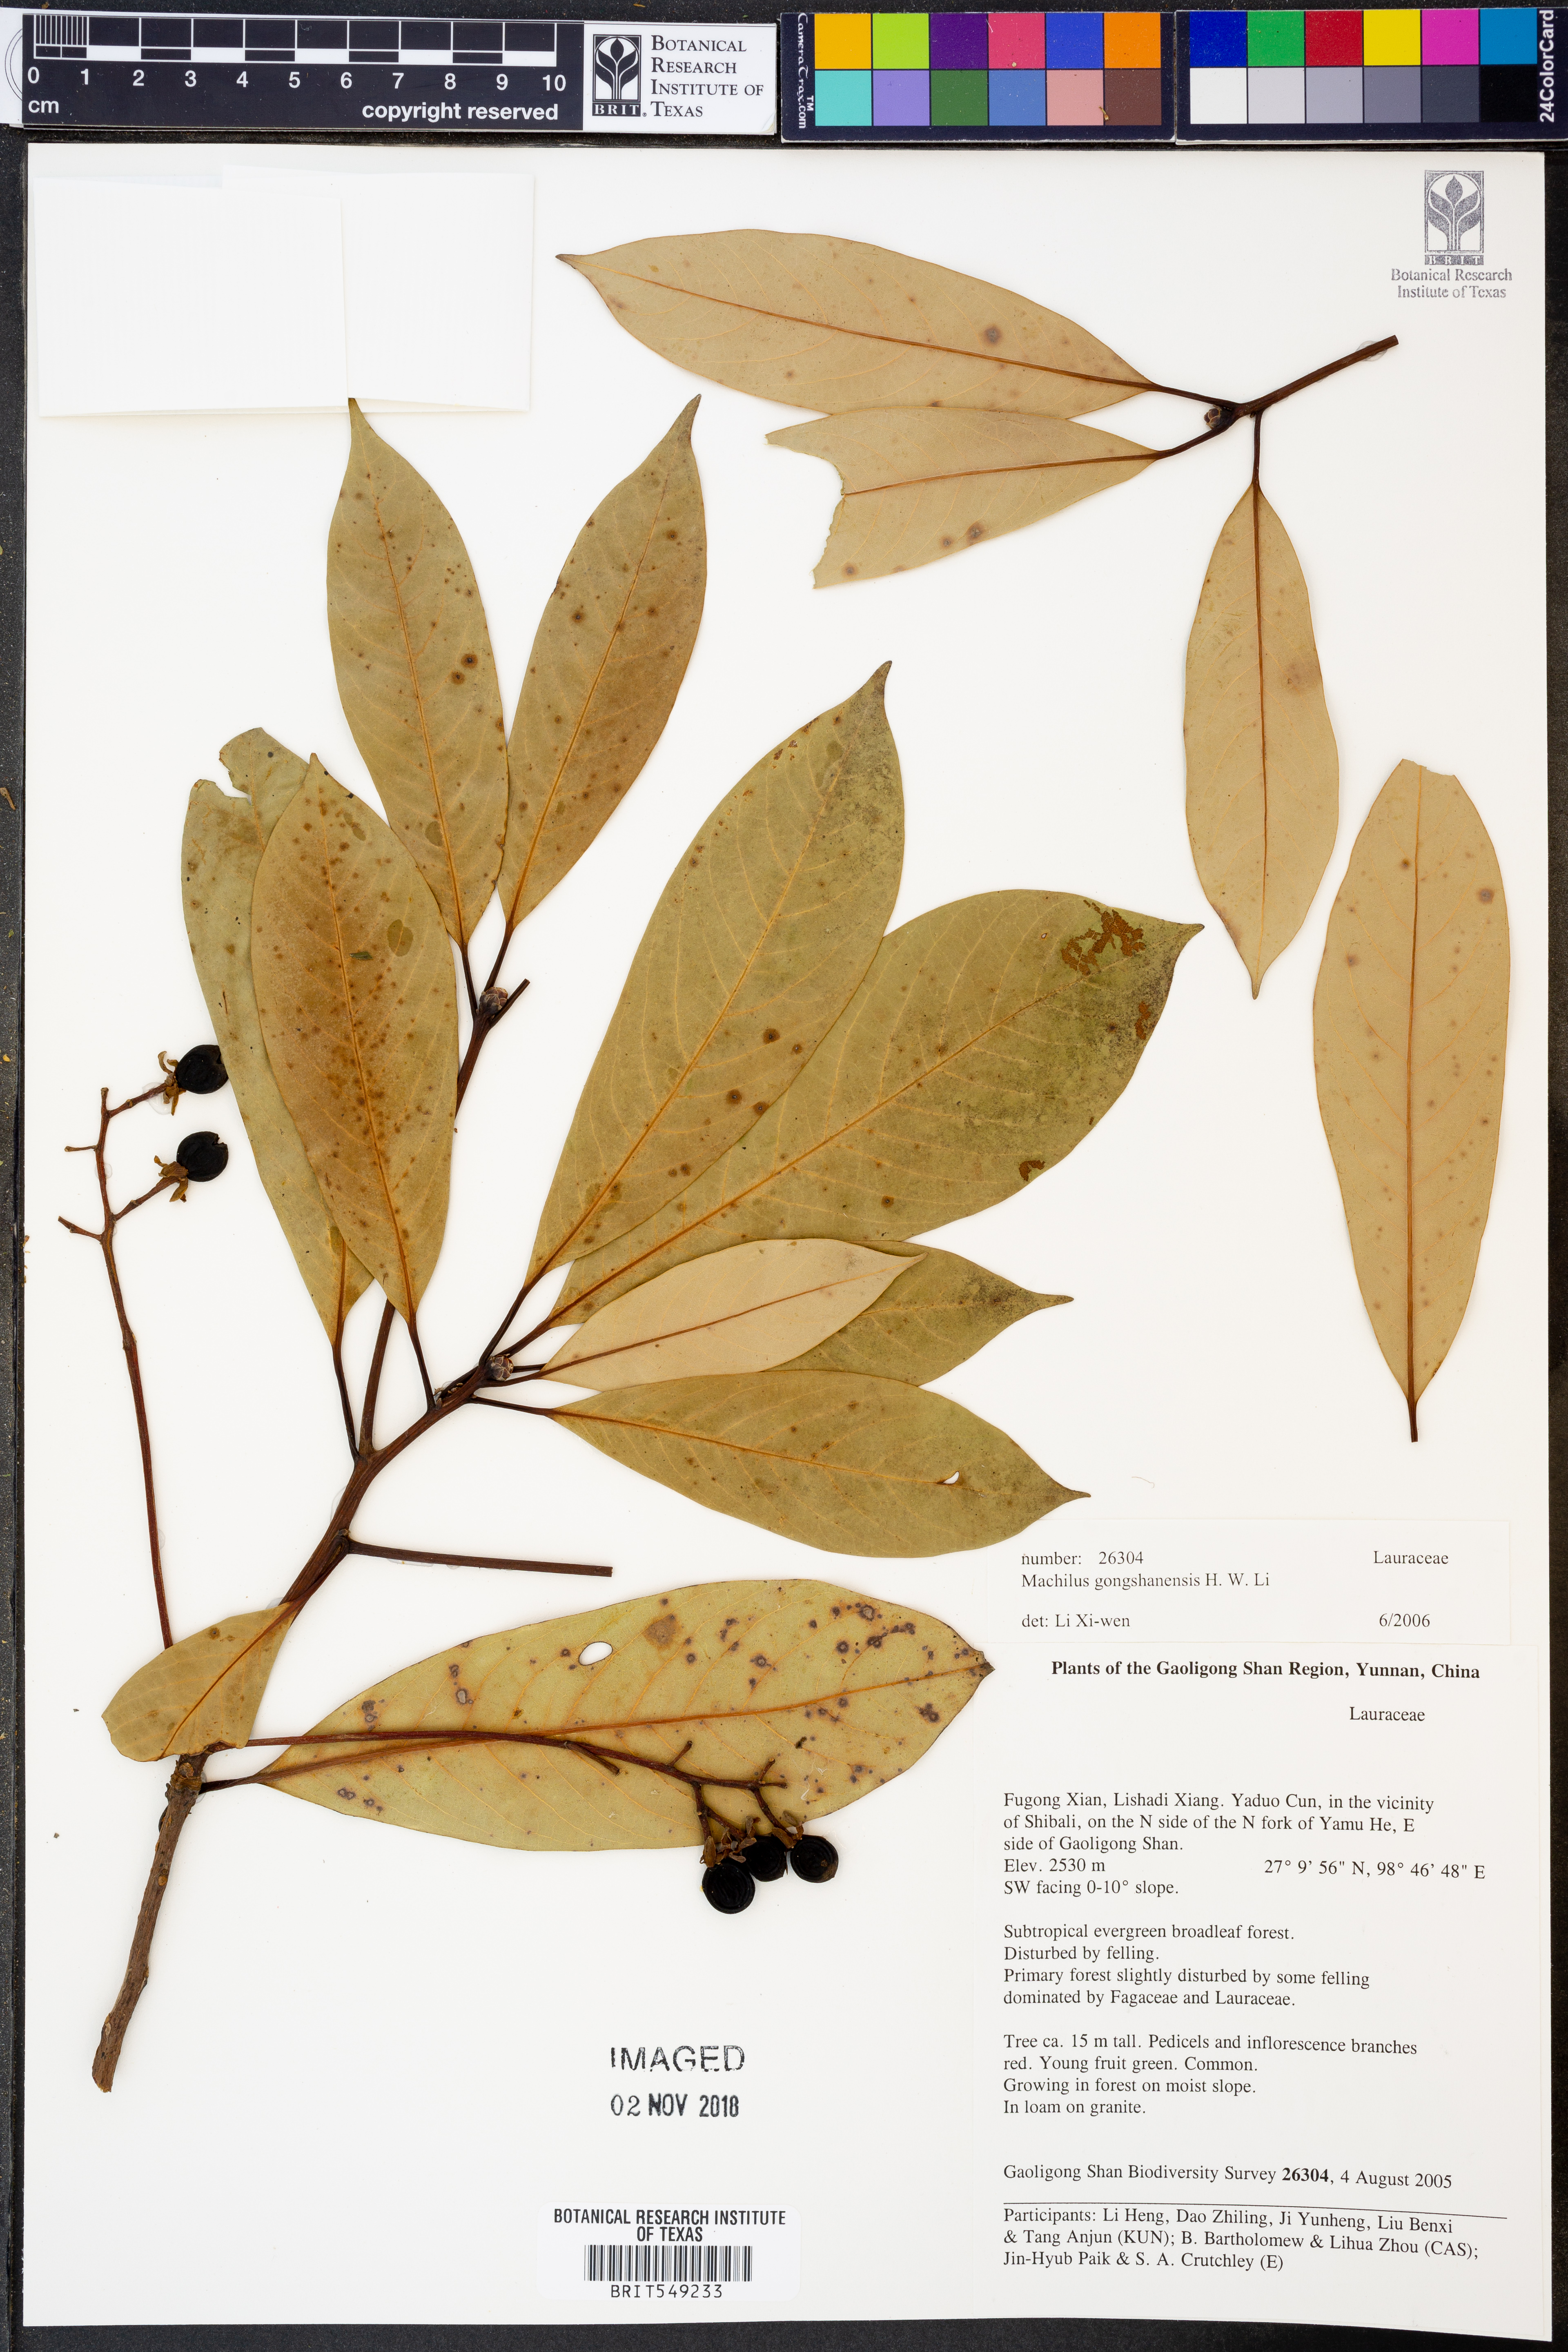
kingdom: Plantae
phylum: Tracheophyta
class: Magnoliopsida
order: Laurales
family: Lauraceae
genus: Machilus
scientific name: Machilus gongshanensis
